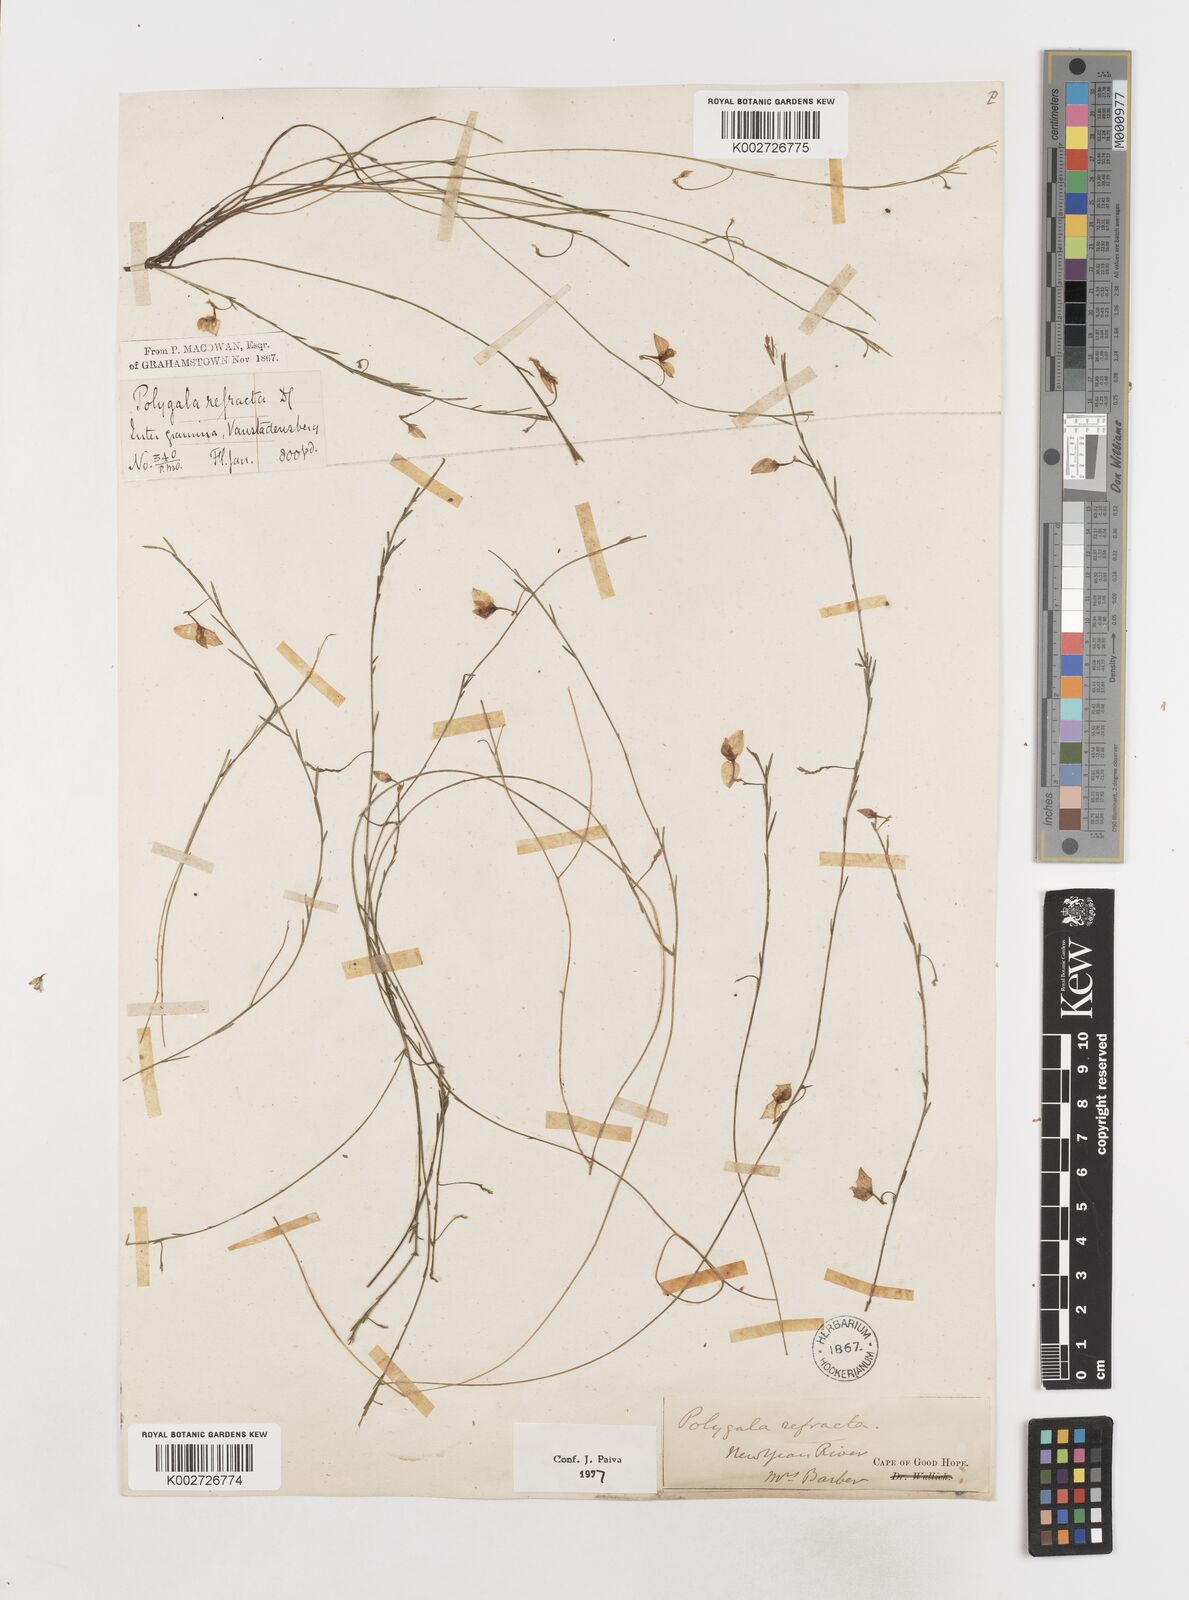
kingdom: Plantae
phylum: Tracheophyta
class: Magnoliopsida
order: Fabales
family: Polygalaceae
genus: Polygala
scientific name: Polygala refracta
